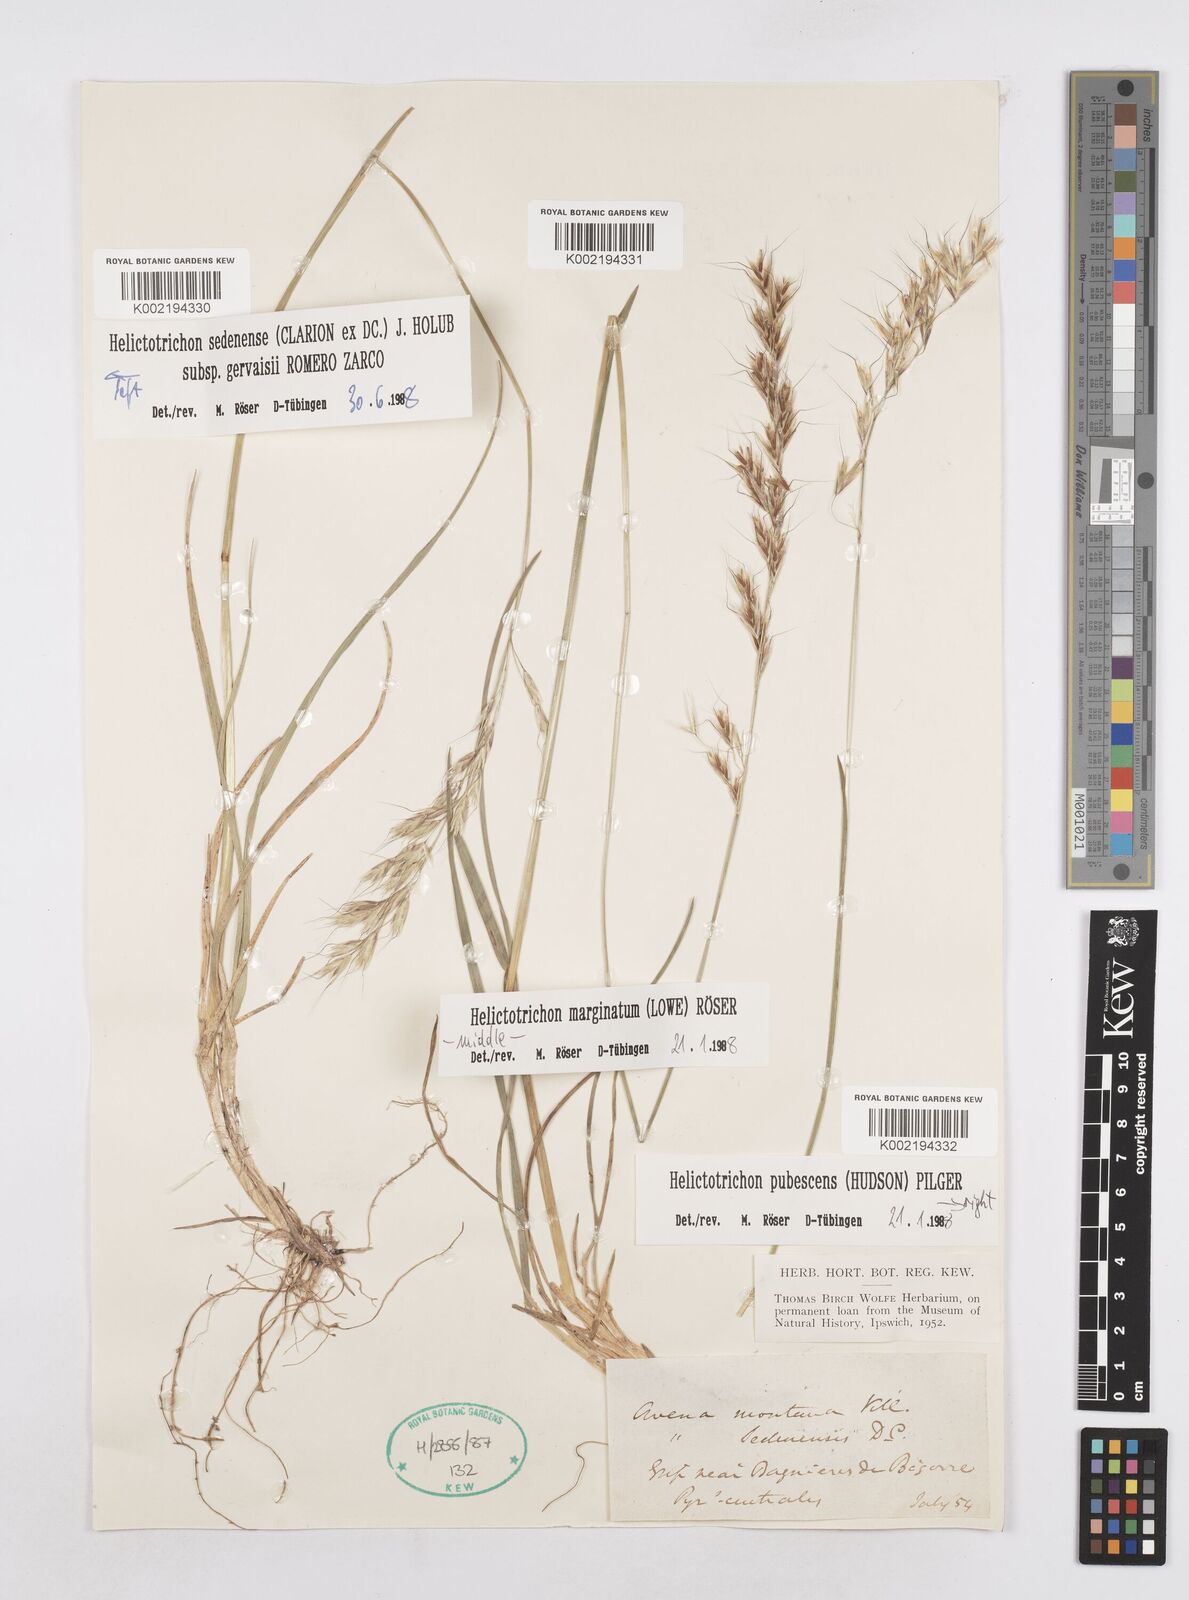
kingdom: Plantae
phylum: Tracheophyta
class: Liliopsida
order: Poales
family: Poaceae
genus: Helictotrichon
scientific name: Helictotrichon sedenense
